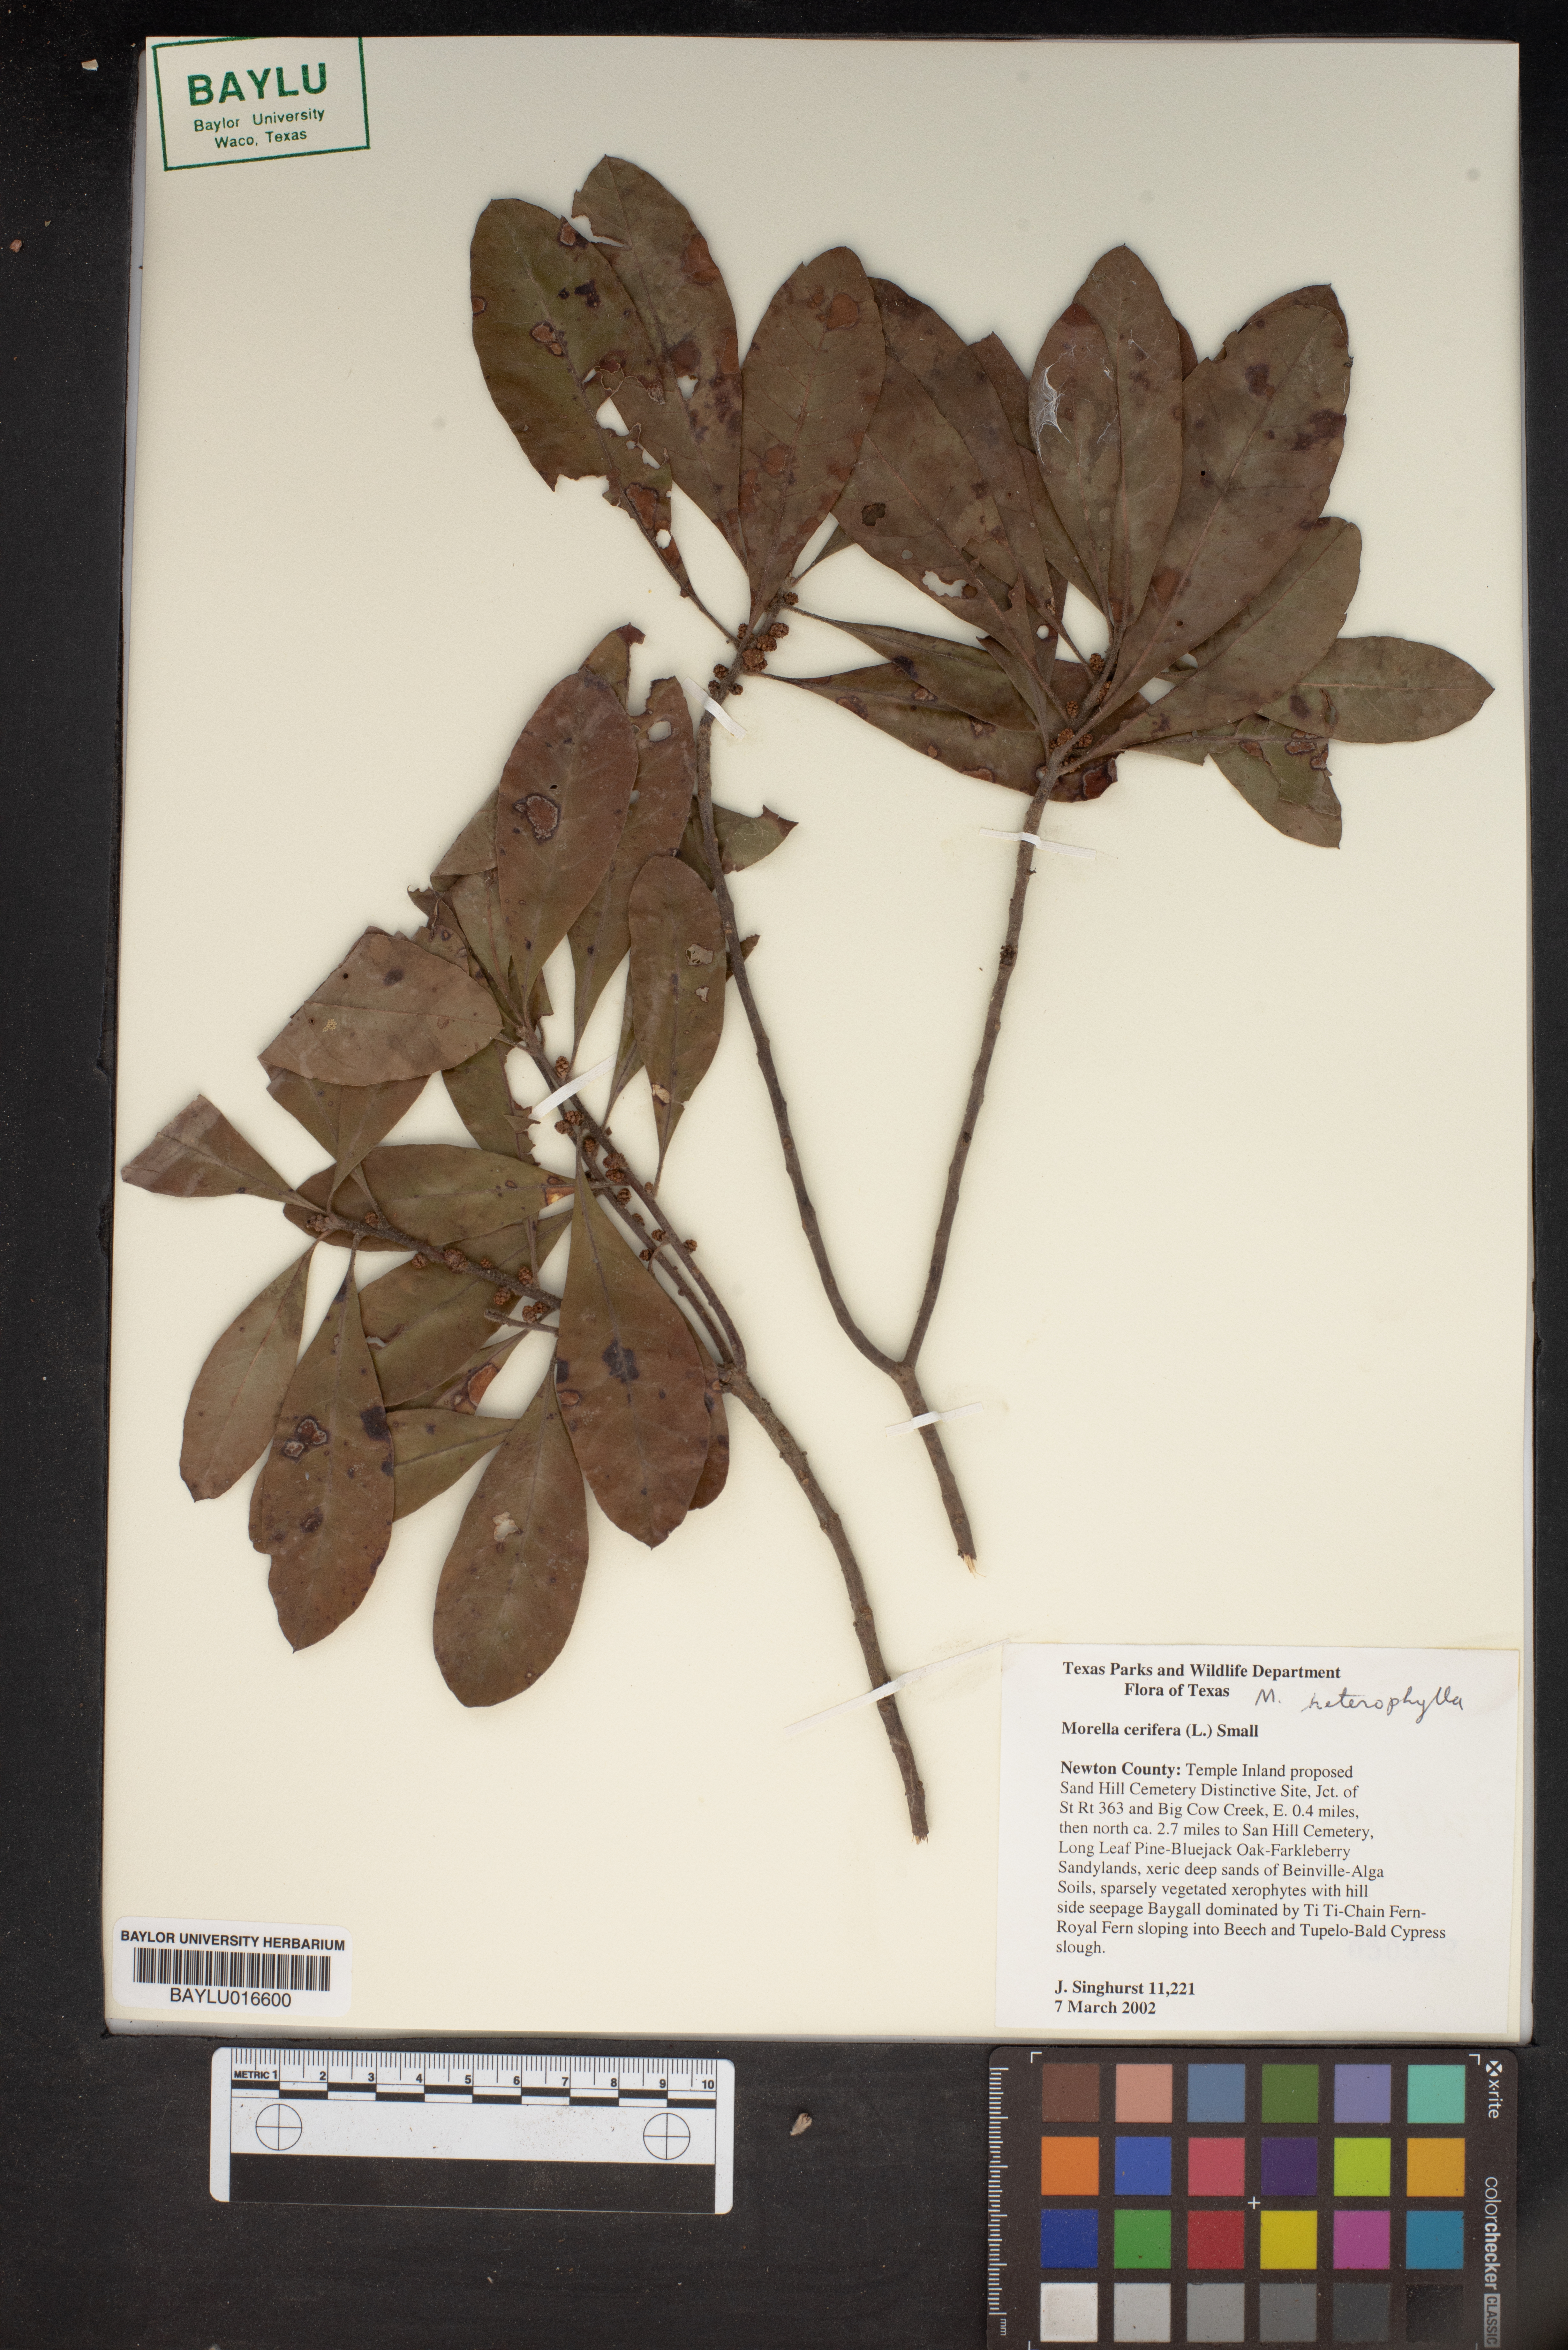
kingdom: Plantae
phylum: Tracheophyta
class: Magnoliopsida
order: Fagales
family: Myricaceae
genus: Morella
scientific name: Morella cerifera
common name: Wax myrtle
